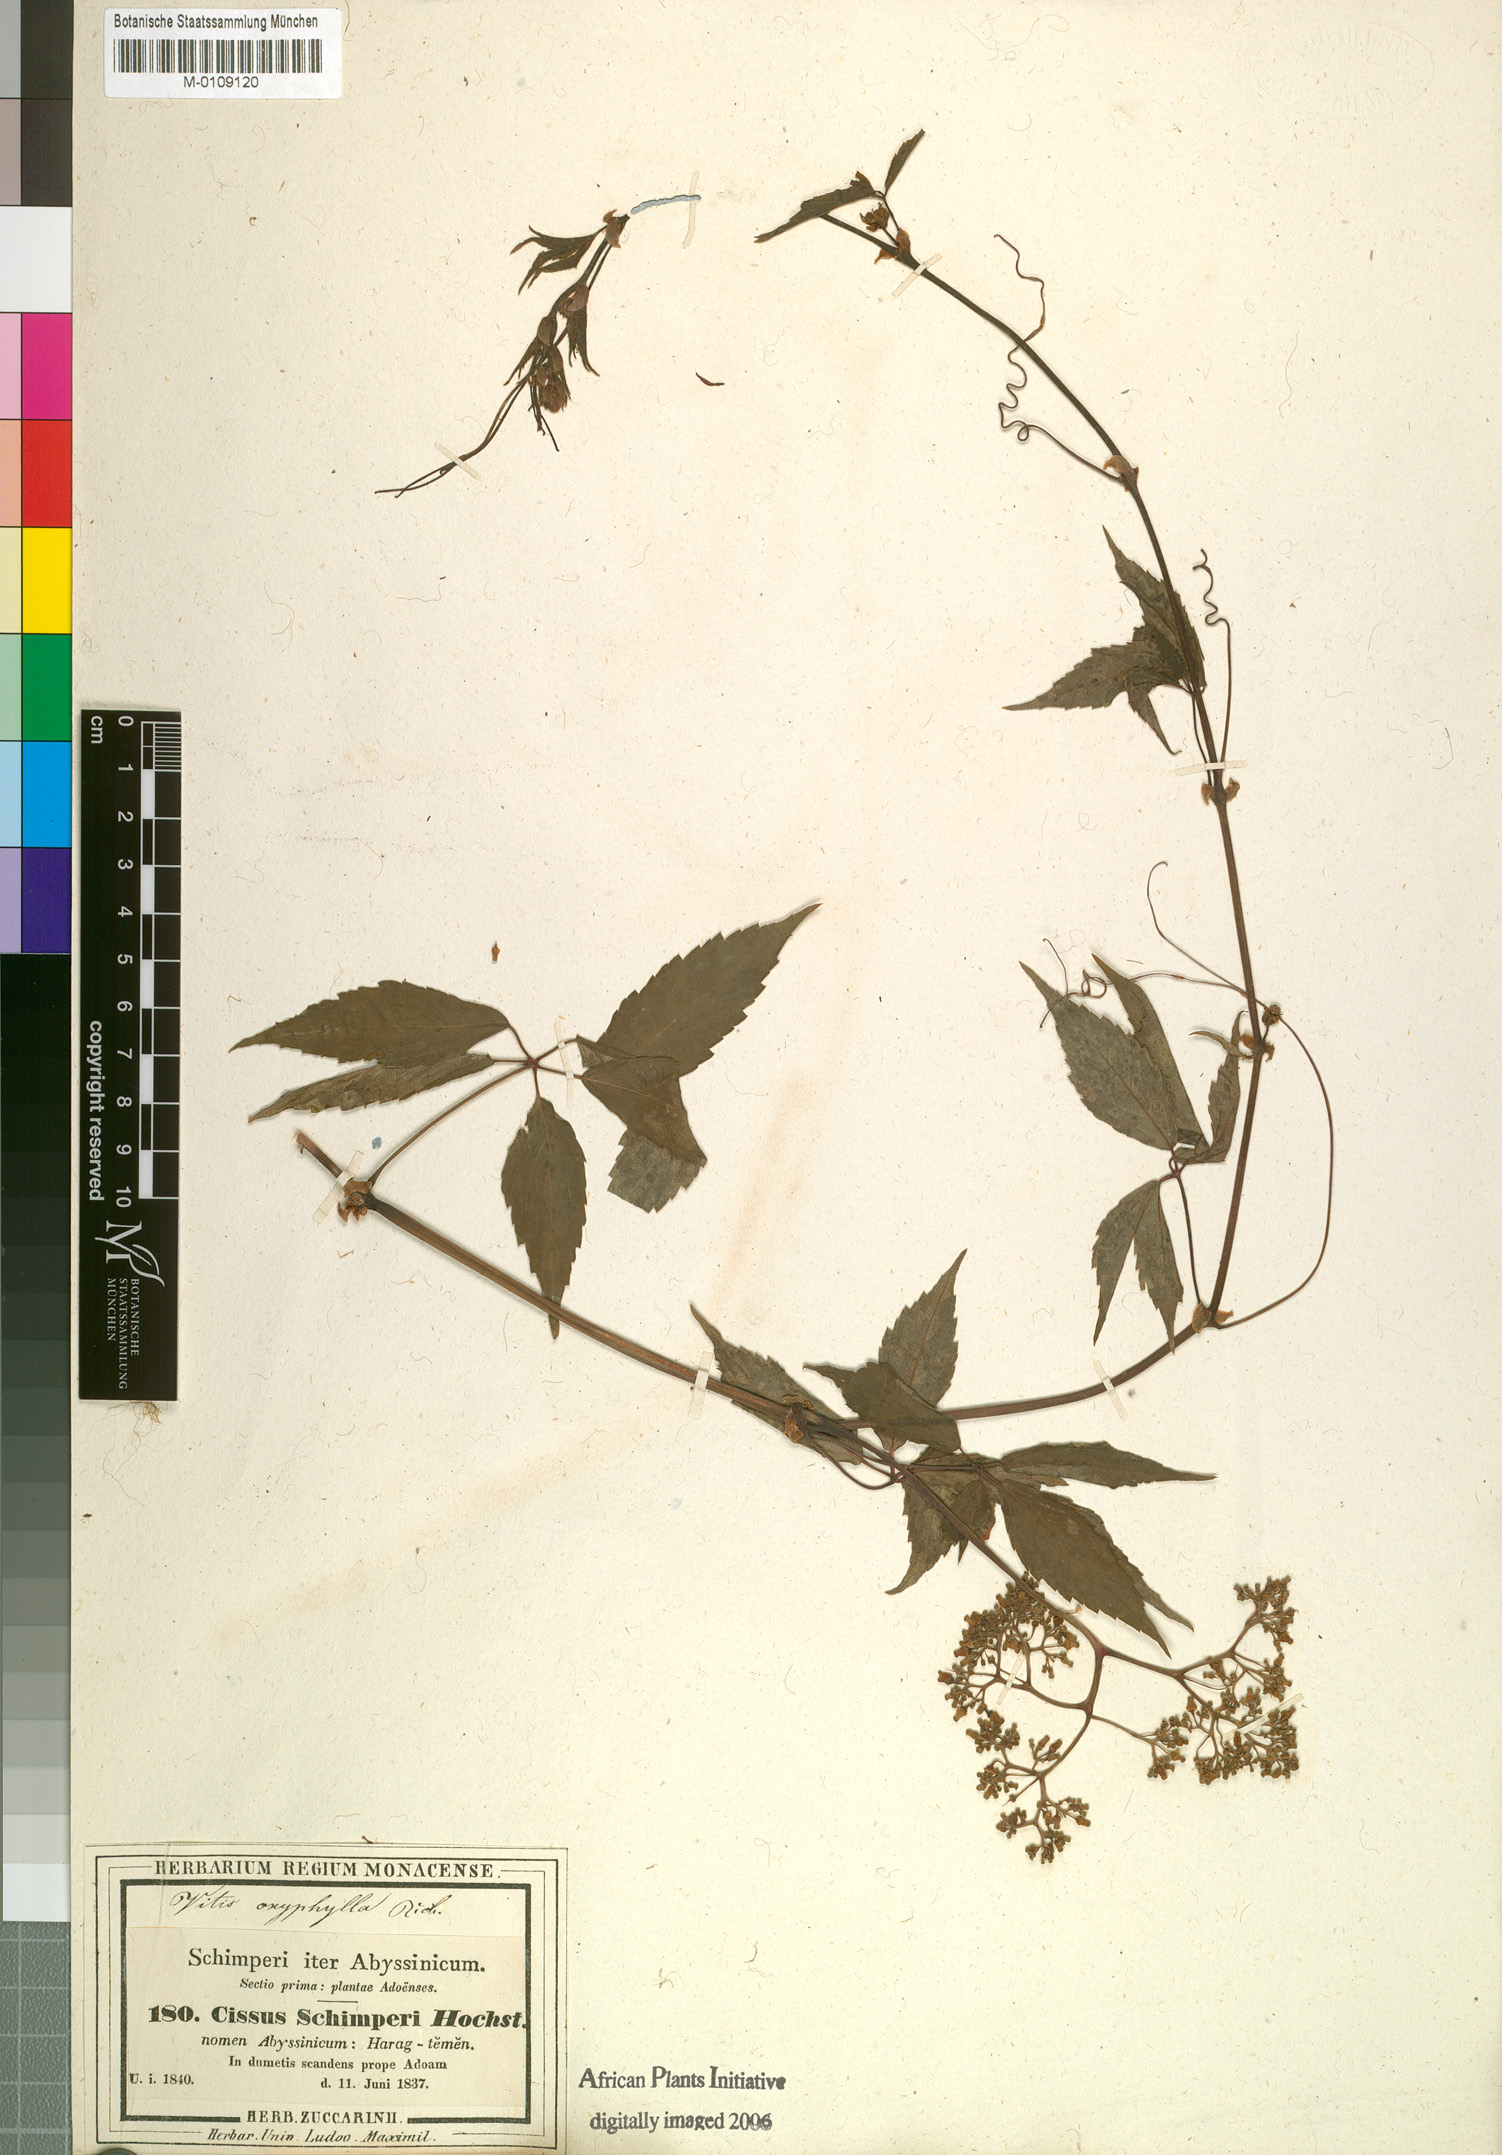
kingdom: Plantae
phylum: Tracheophyta
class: Magnoliopsida
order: Vitales
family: Vitaceae
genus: Cyphostemma
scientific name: Cyphostemma oxyphyllum
